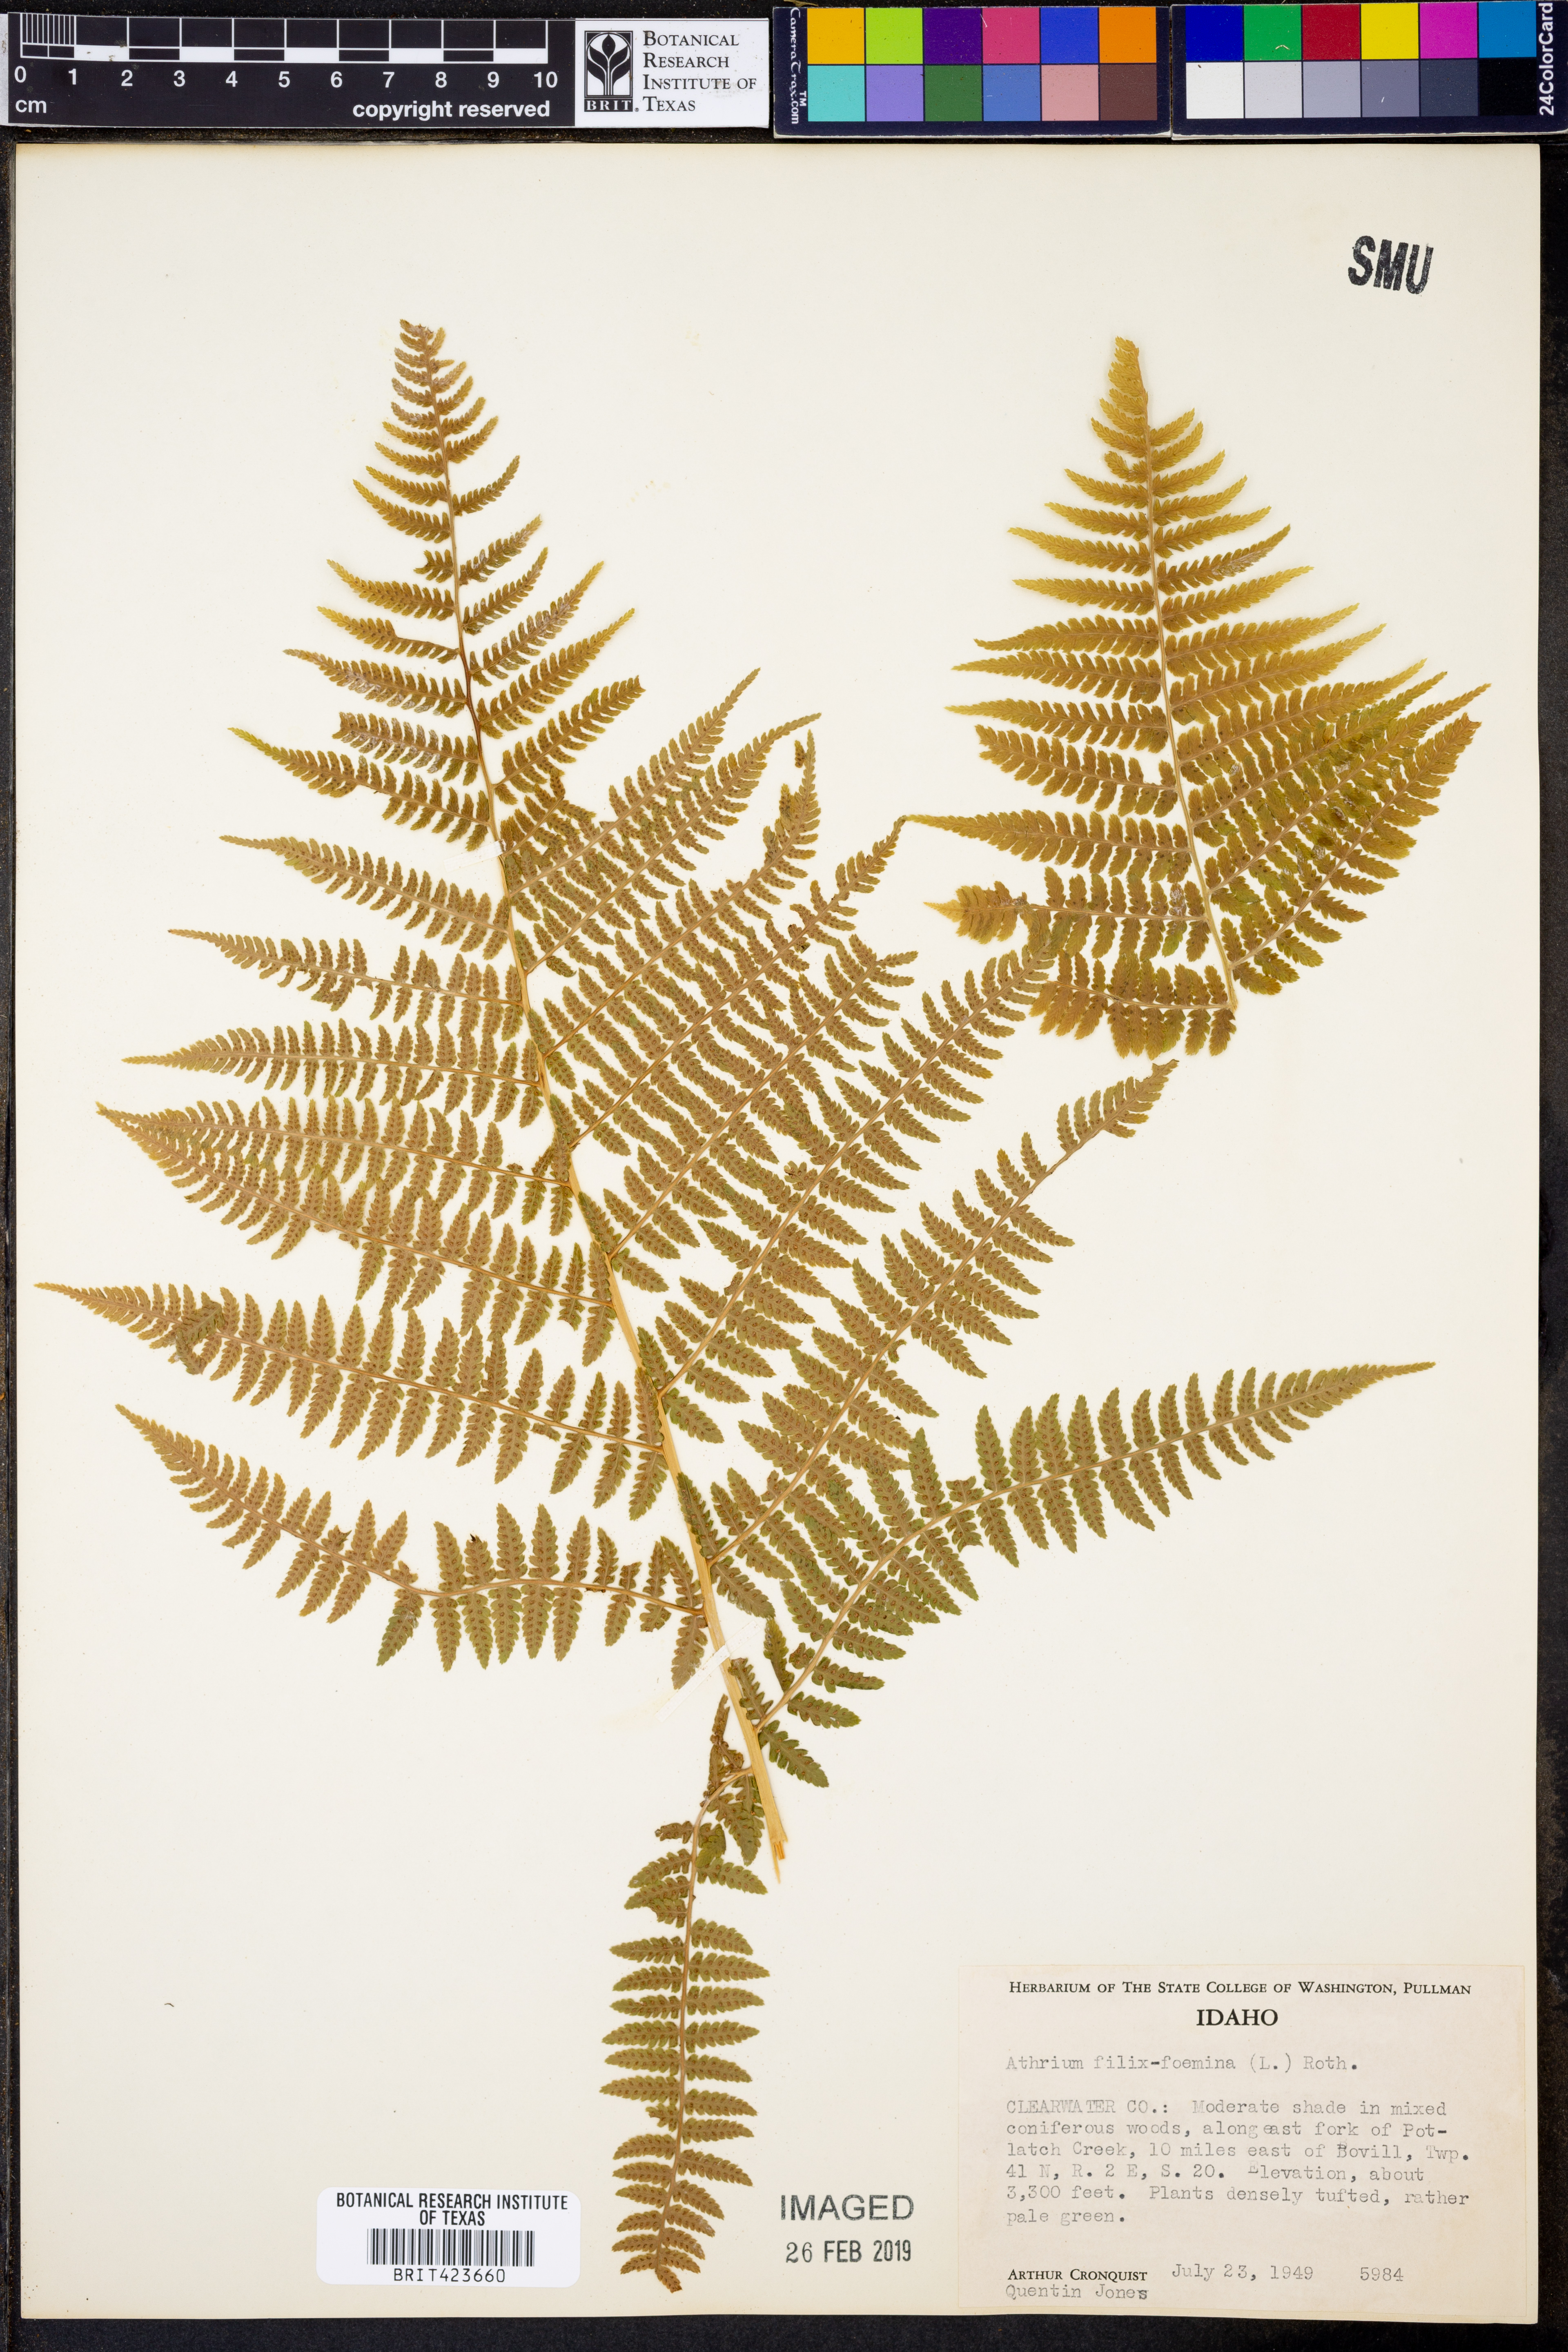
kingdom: Plantae
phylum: Tracheophyta
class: Polypodiopsida
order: Polypodiales
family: Athyriaceae
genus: Athyrium
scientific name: Athyrium filix-femina
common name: Lady fern
